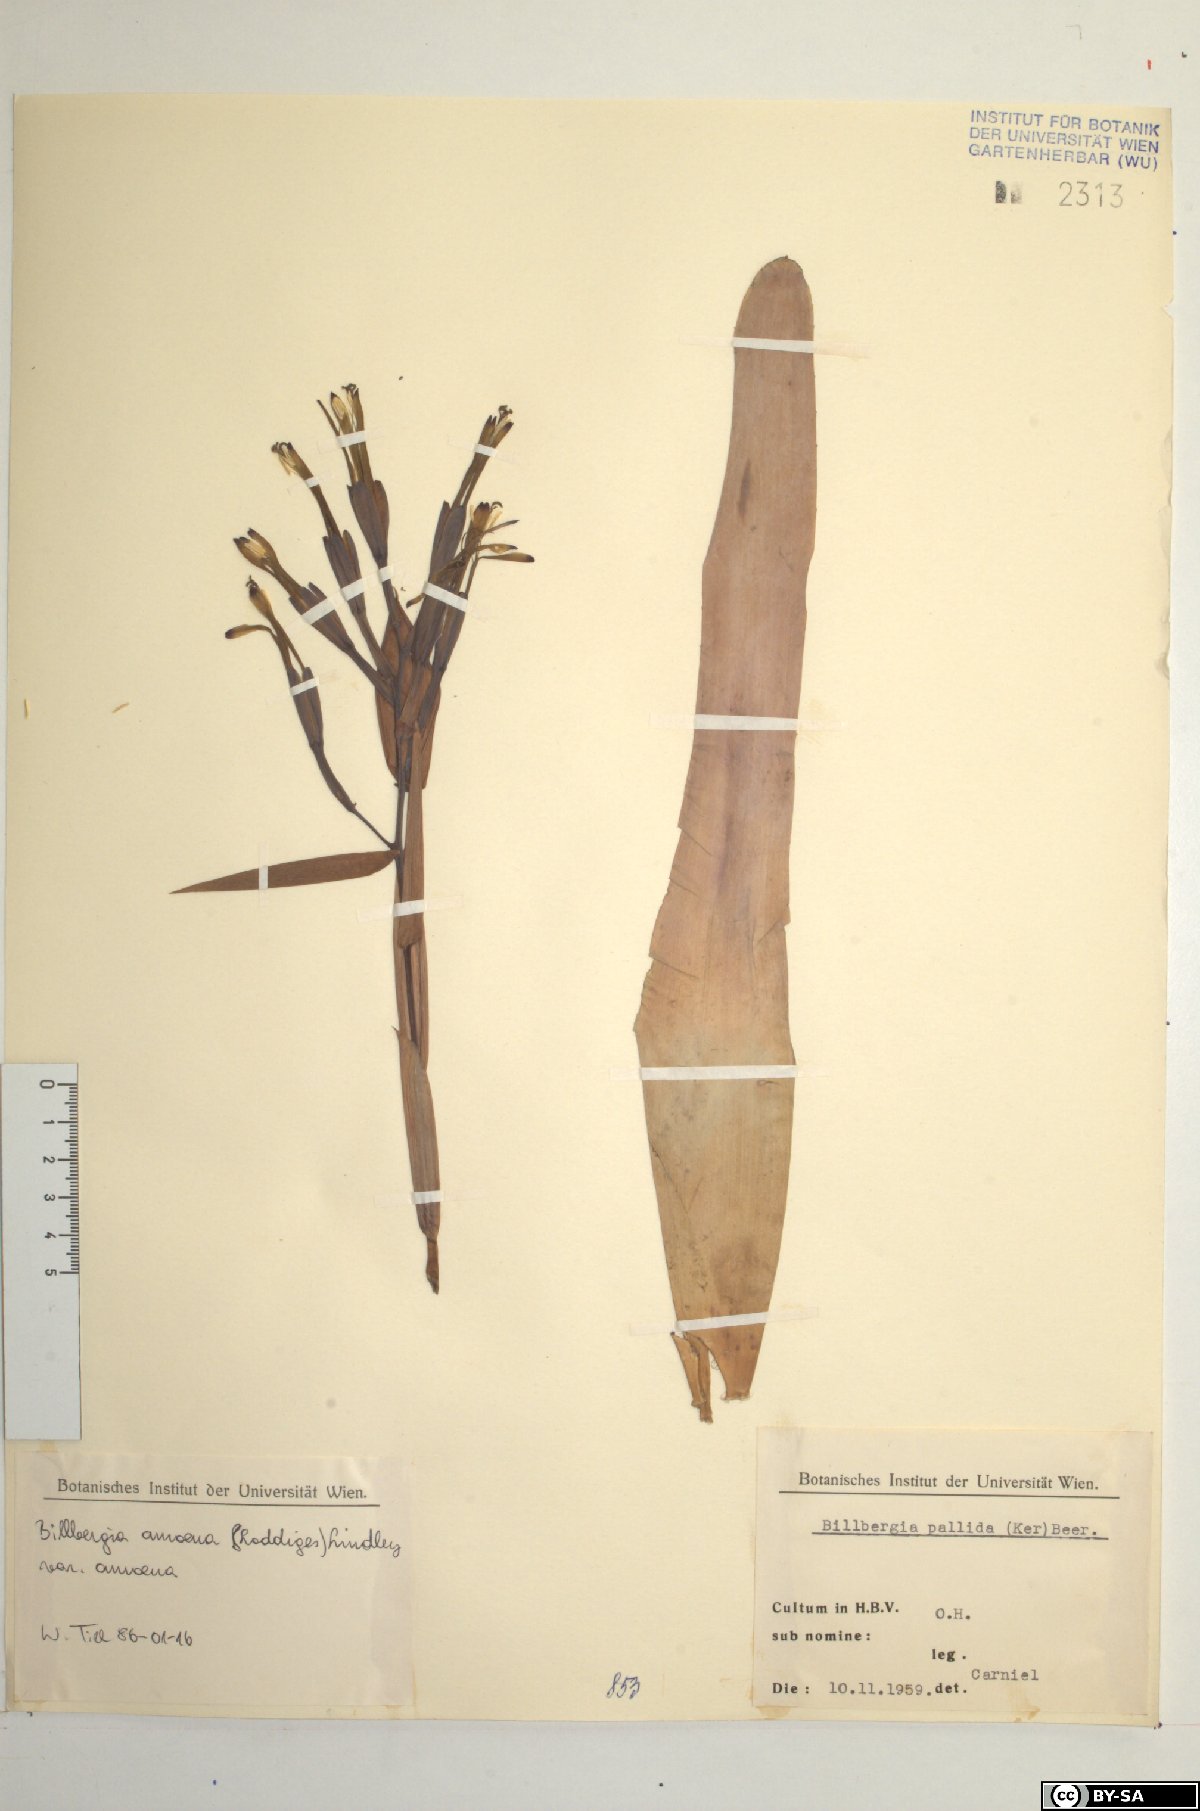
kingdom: Plantae
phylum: Tracheophyta
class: Liliopsida
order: Poales
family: Bromeliaceae
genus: Tillandsia
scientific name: Tillandsia tenuifolia
